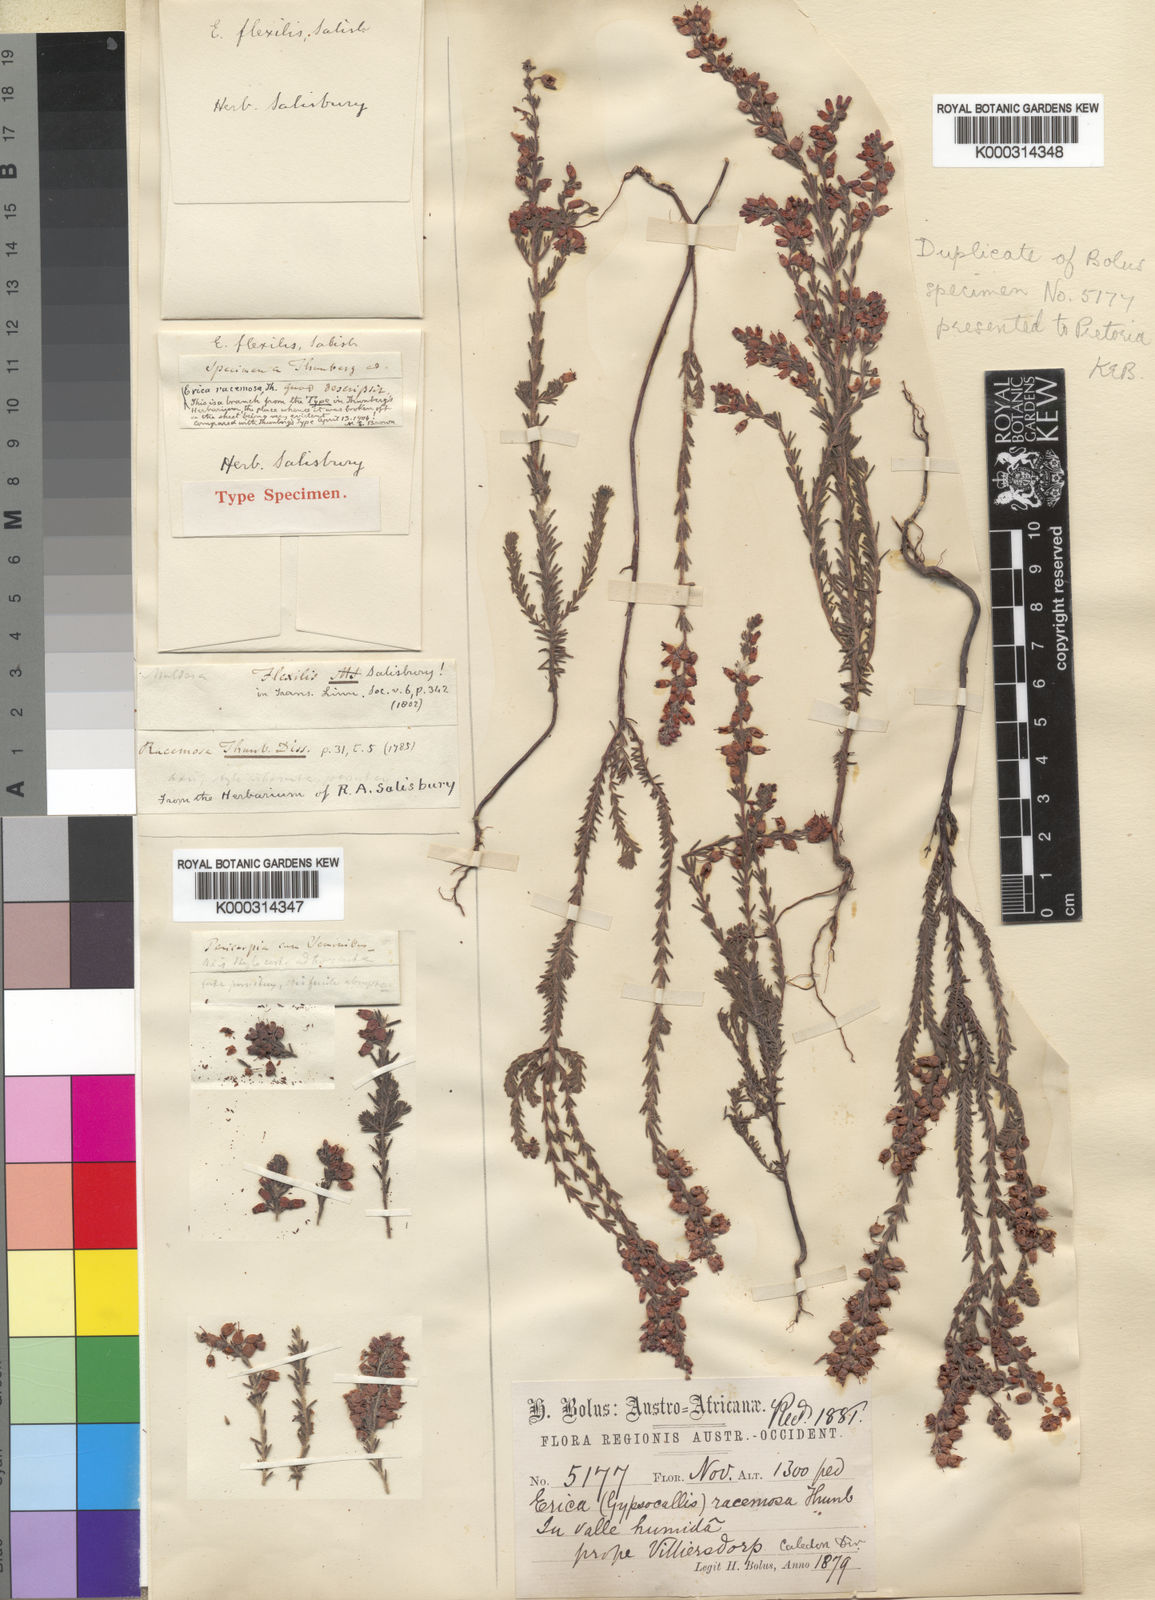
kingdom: Plantae
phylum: Tracheophyta
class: Magnoliopsida
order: Ericales
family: Ericaceae
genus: Erica
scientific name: Erica racemosa
